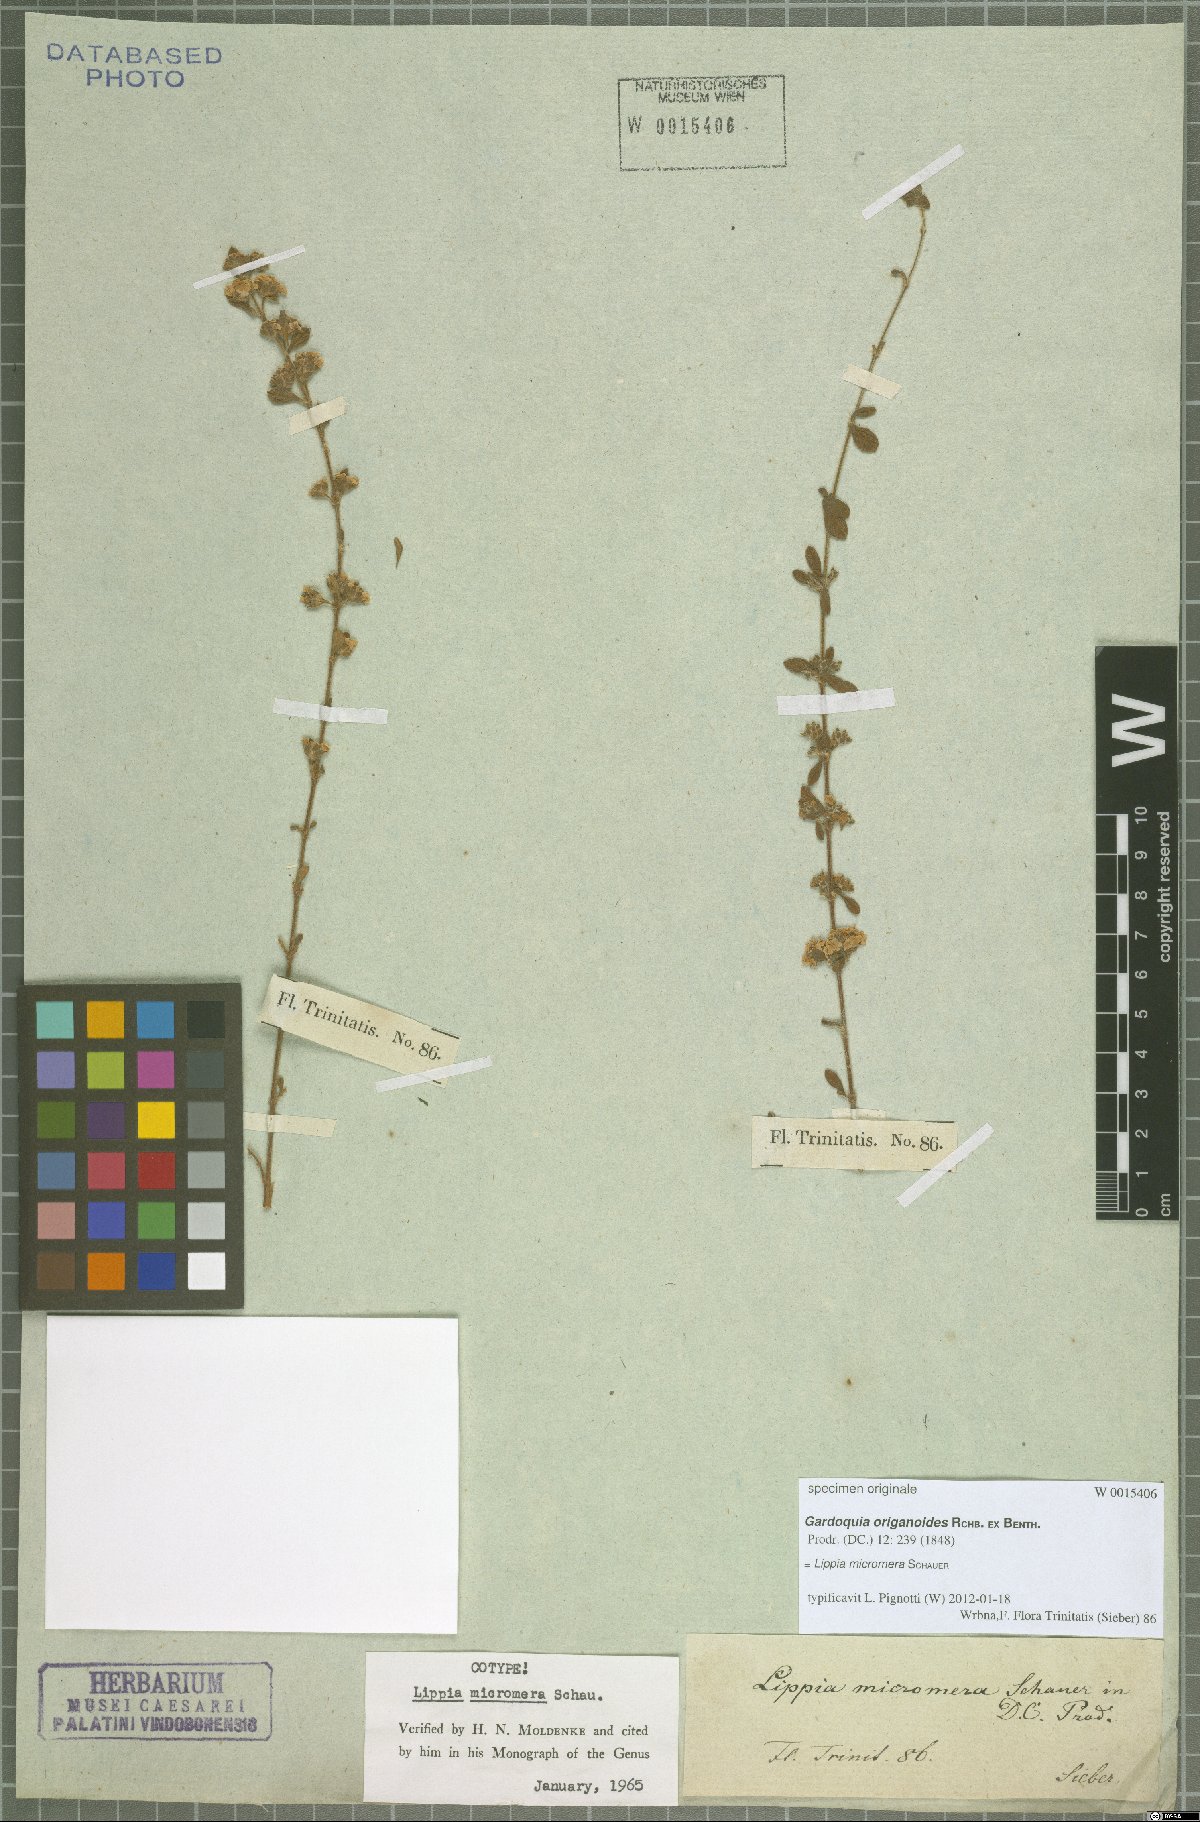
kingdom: Plantae
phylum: Tracheophyta
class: Magnoliopsida
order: Lamiales
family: Verbenaceae
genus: Lippia
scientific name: Lippia micromera
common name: Puerto rican oregano
